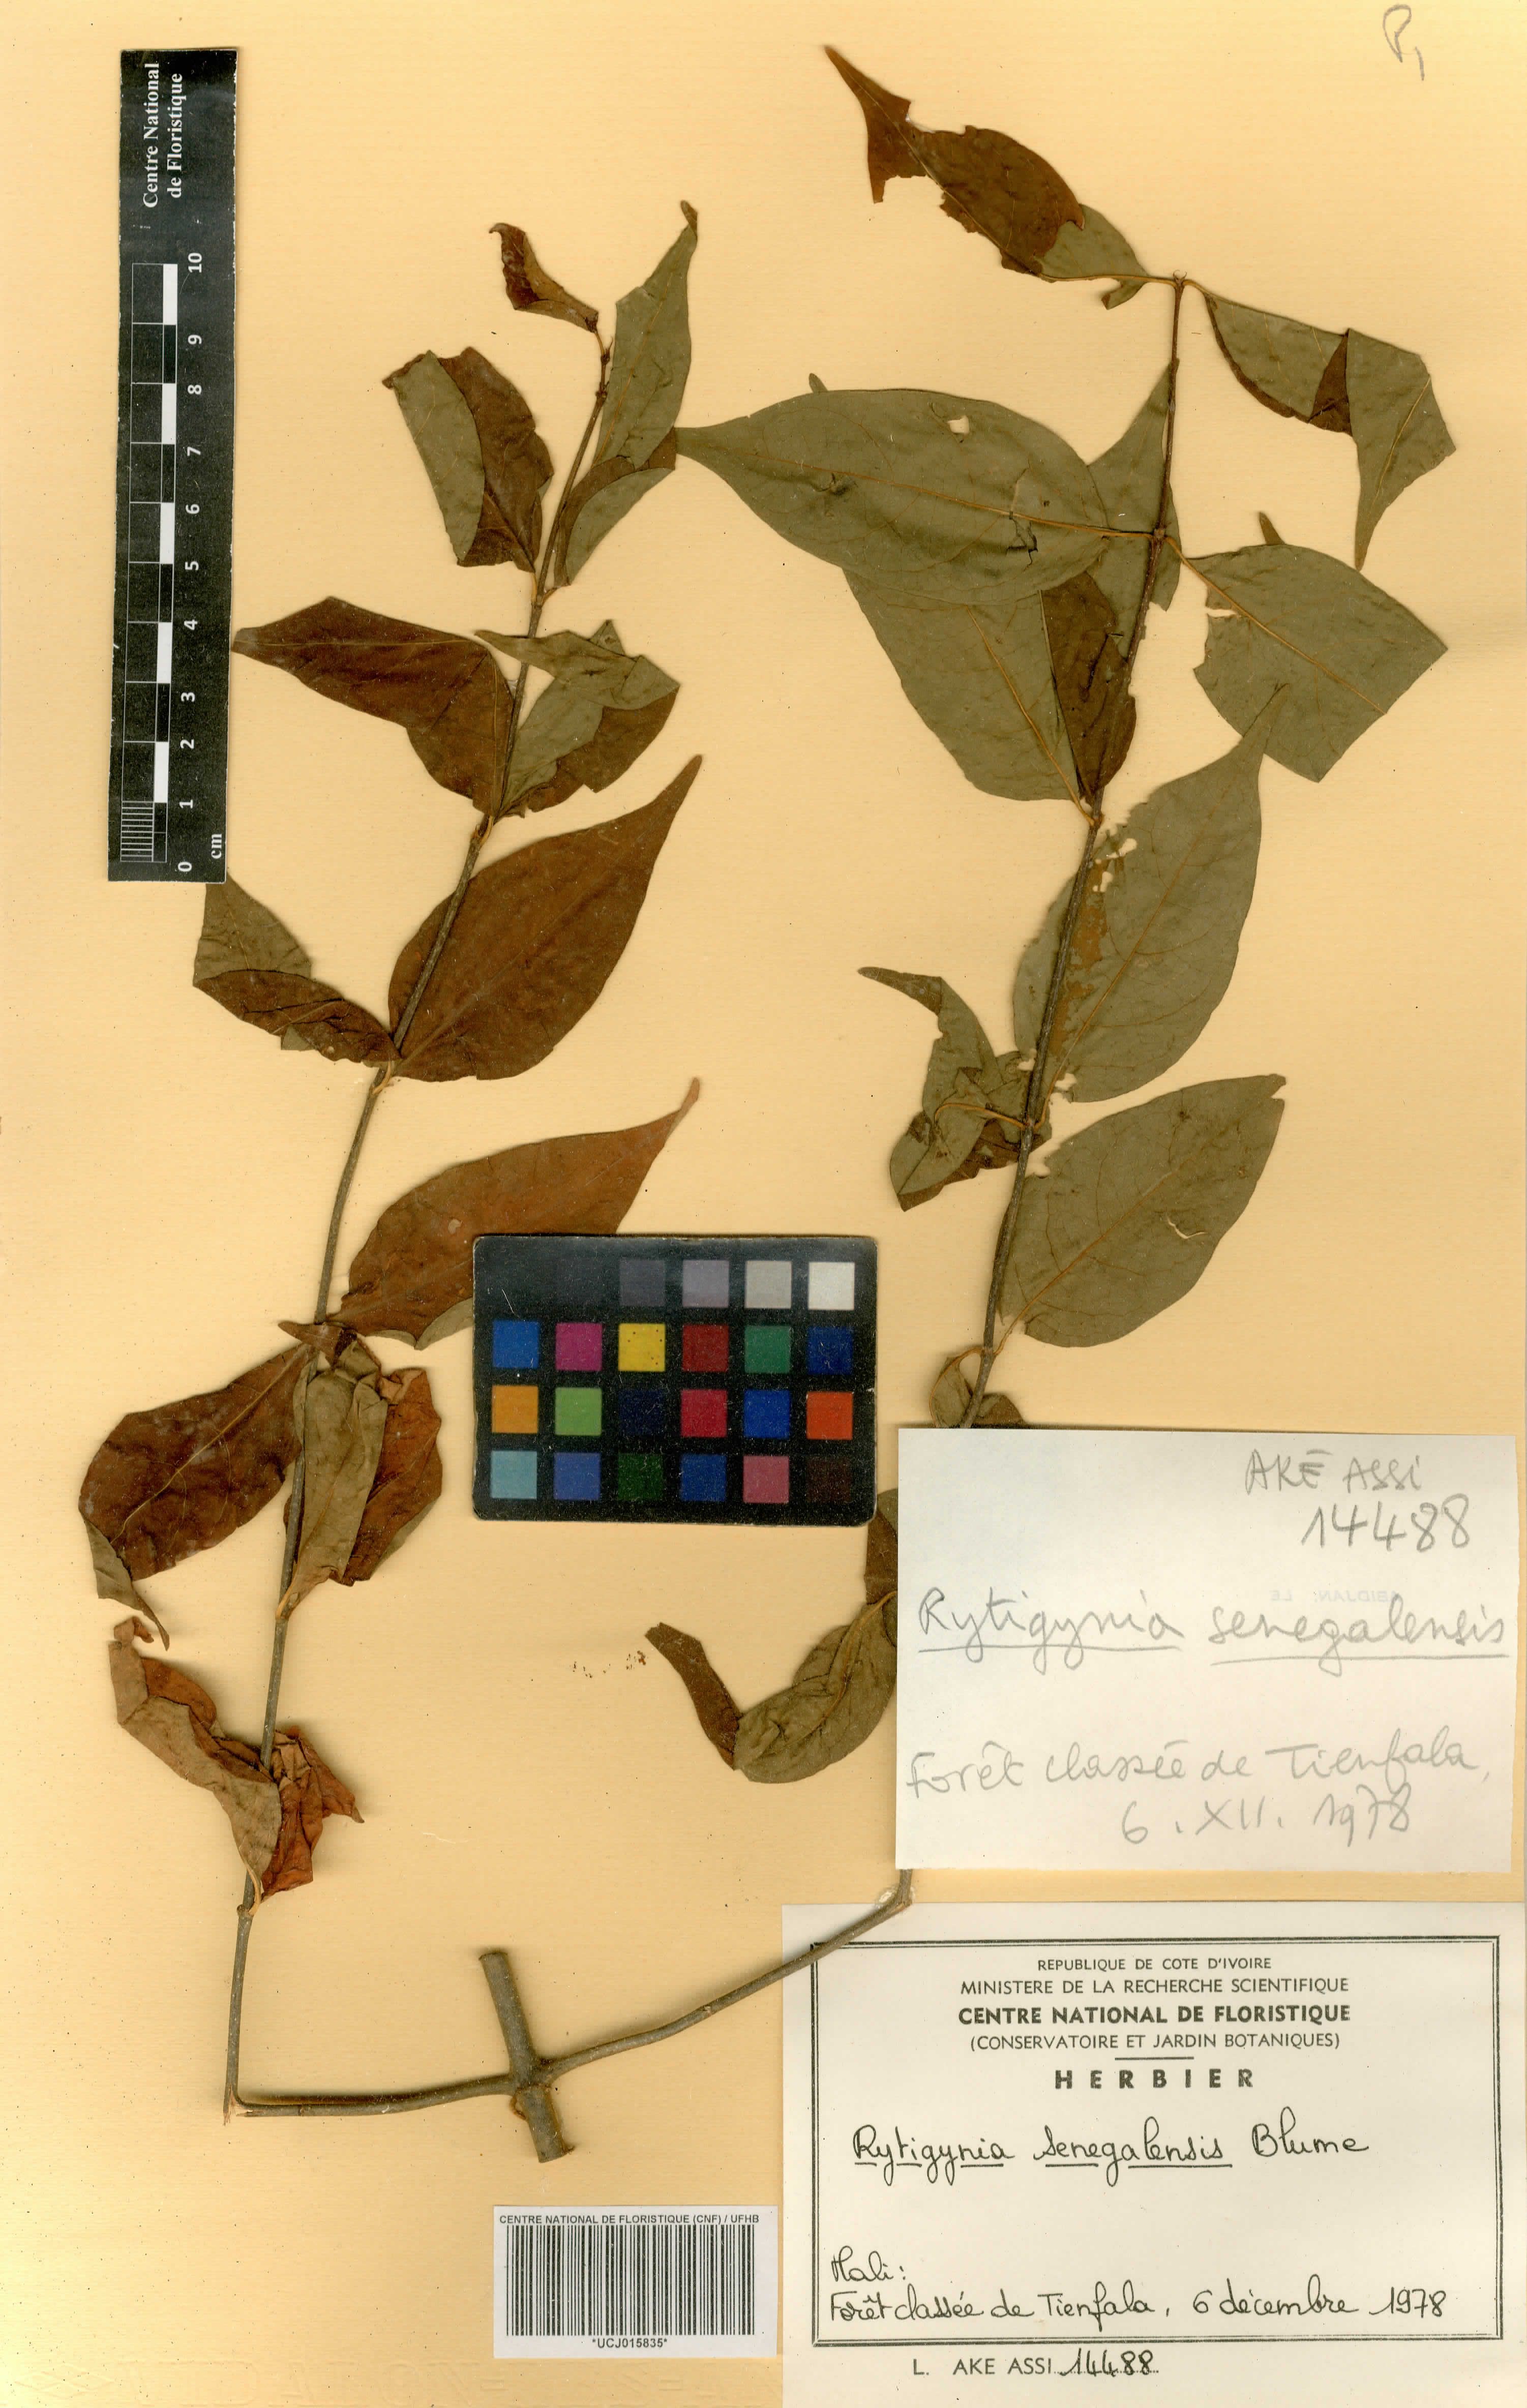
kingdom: Plantae
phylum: Tracheophyta
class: Magnoliopsida
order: Gentianales
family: Rubiaceae
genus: Rytigynia
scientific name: Rytigynia senegalensis
